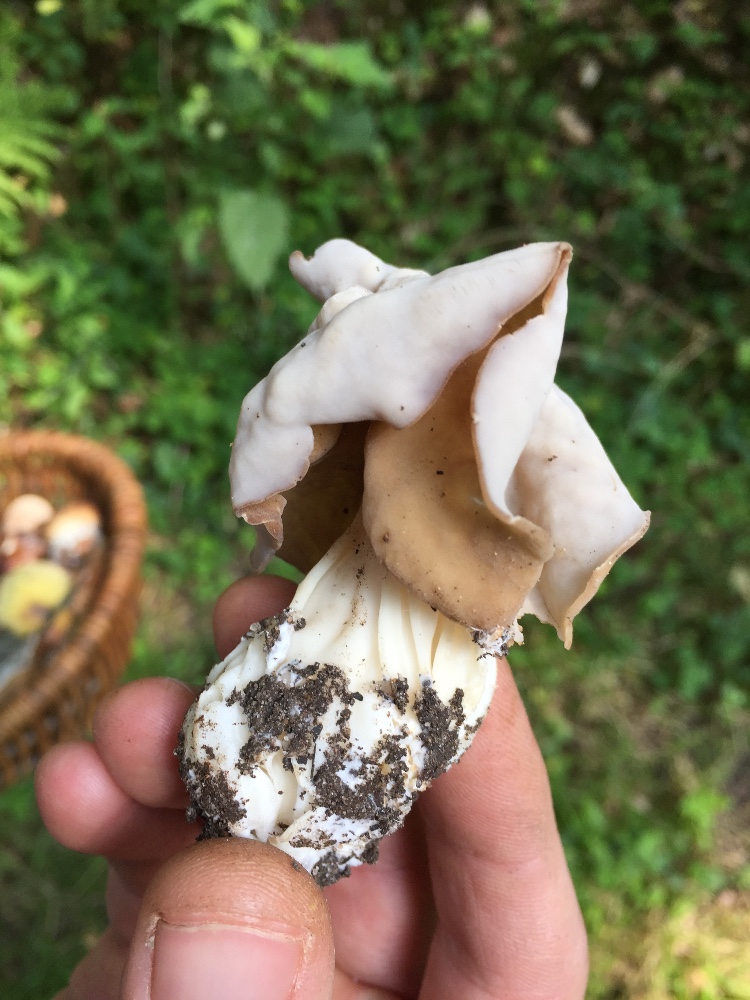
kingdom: Fungi
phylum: Ascomycota
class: Pezizomycetes
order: Pezizales
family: Helvellaceae
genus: Helvella
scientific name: Helvella crispa
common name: kruset foldhat
